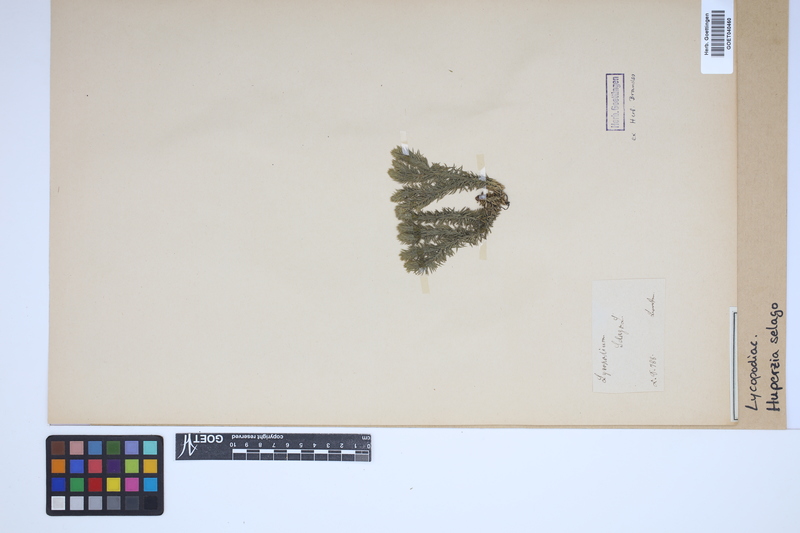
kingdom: Plantae
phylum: Tracheophyta
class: Lycopodiopsida
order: Lycopodiales
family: Lycopodiaceae
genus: Huperzia
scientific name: Huperzia selago
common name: Northern firmoss
